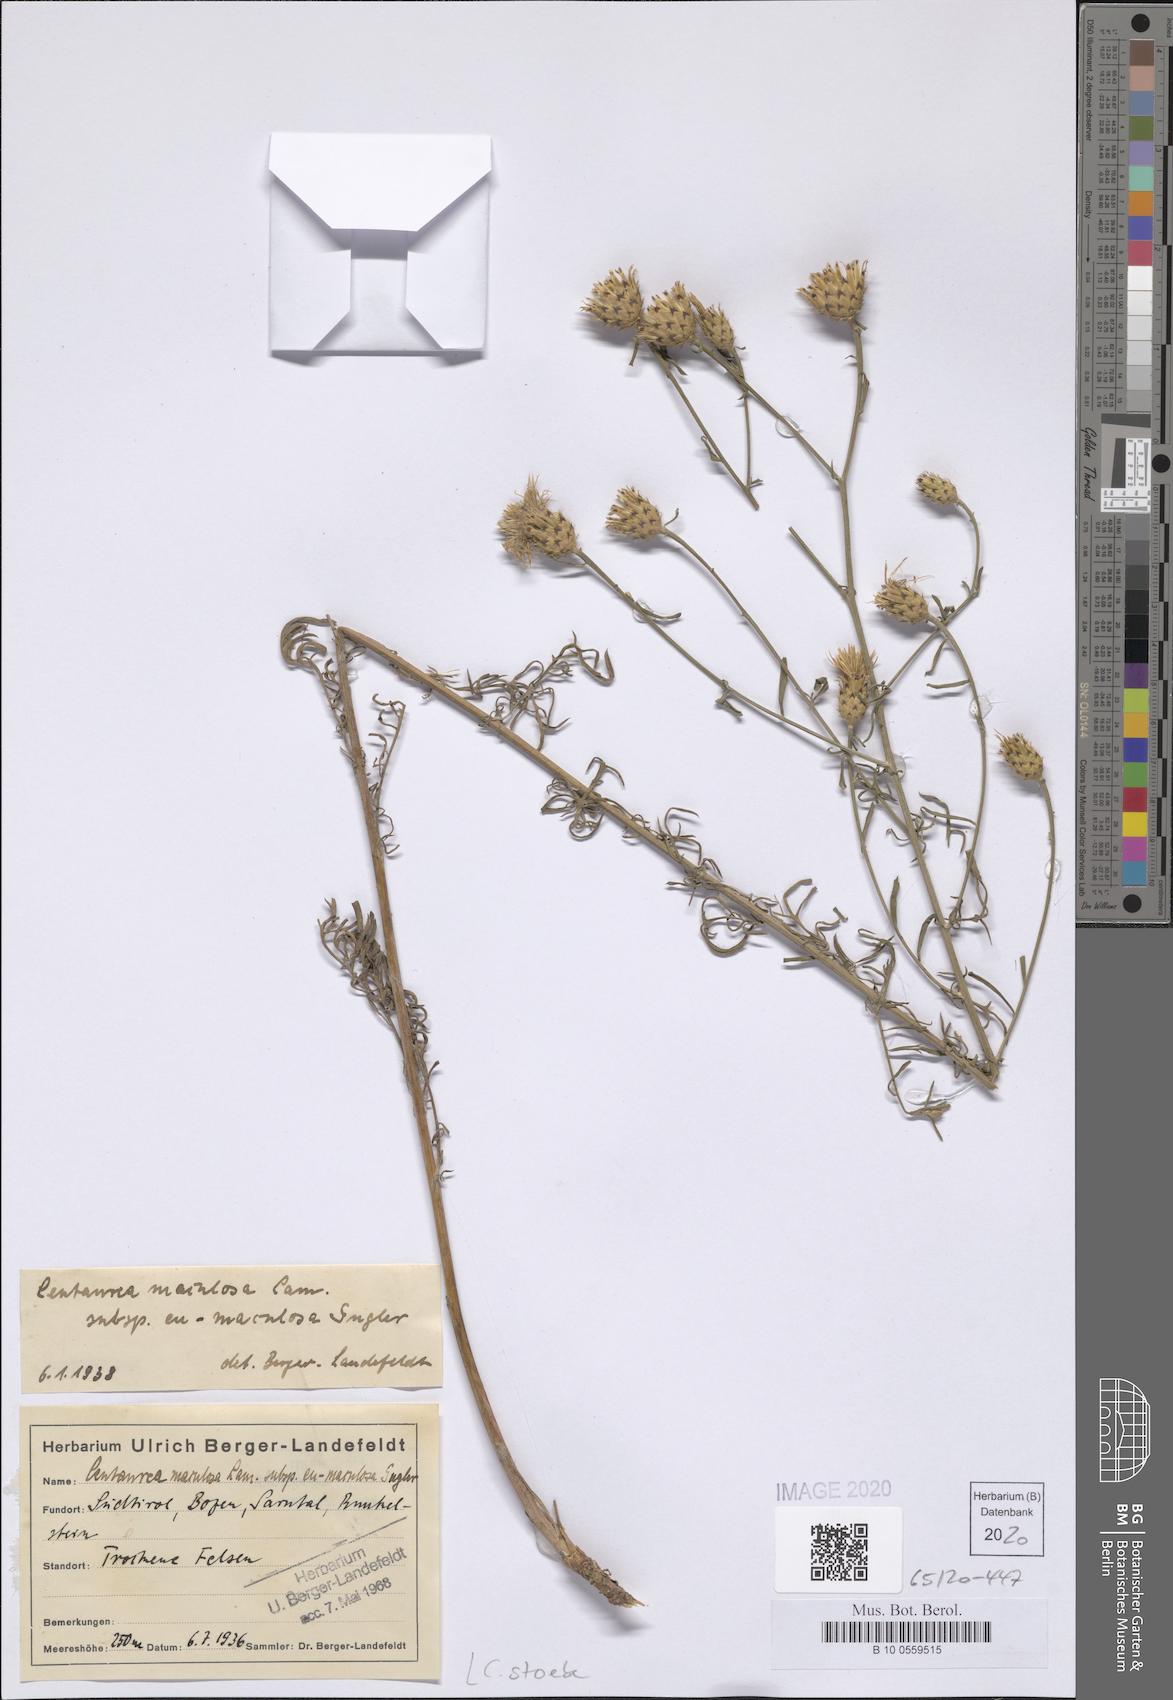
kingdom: Plantae
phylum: Tracheophyta
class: Magnoliopsida
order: Asterales
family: Asteraceae
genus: Centaurea
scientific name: Centaurea stoebe
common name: Spotted knapweed
